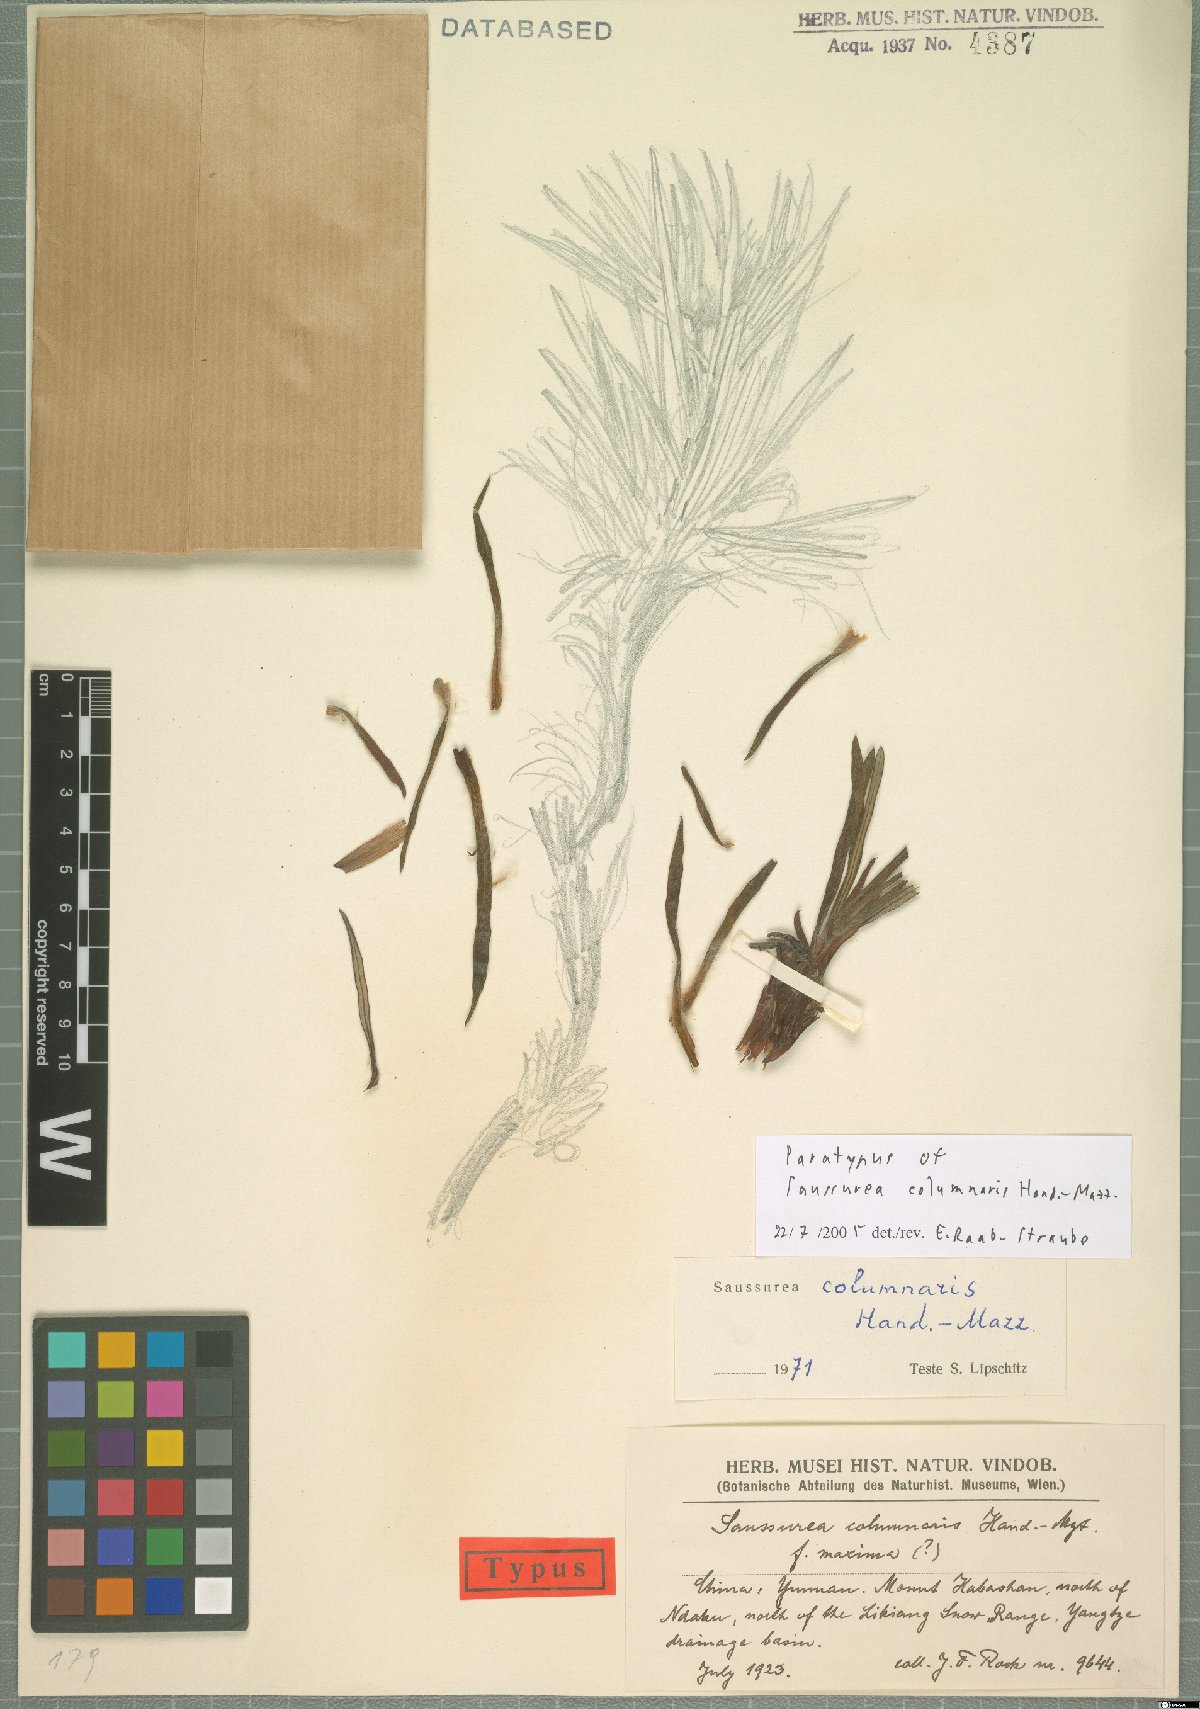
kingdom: Plantae
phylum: Tracheophyta
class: Magnoliopsida
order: Asterales
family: Asteraceae
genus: Saussurea
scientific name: Saussurea columnaris
